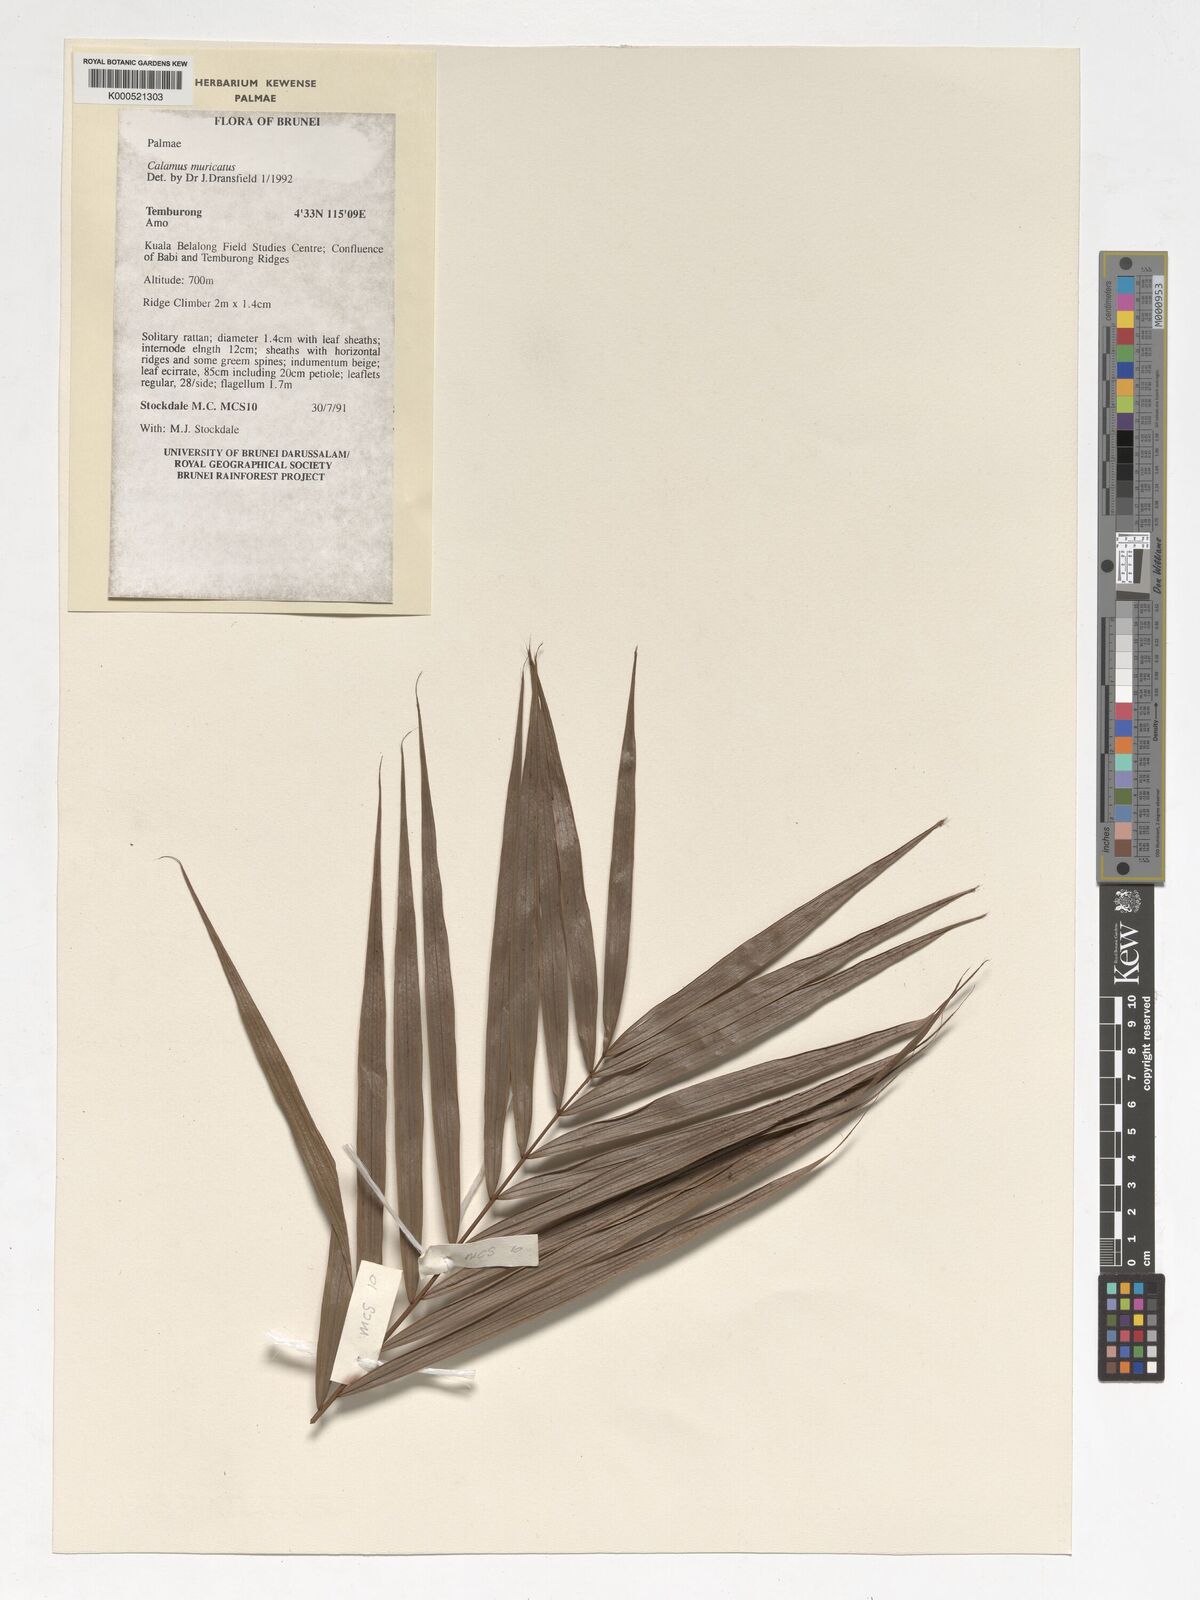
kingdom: Plantae
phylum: Tracheophyta
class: Liliopsida
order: Arecales
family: Arecaceae
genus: Calamus
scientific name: Calamus muricatus
